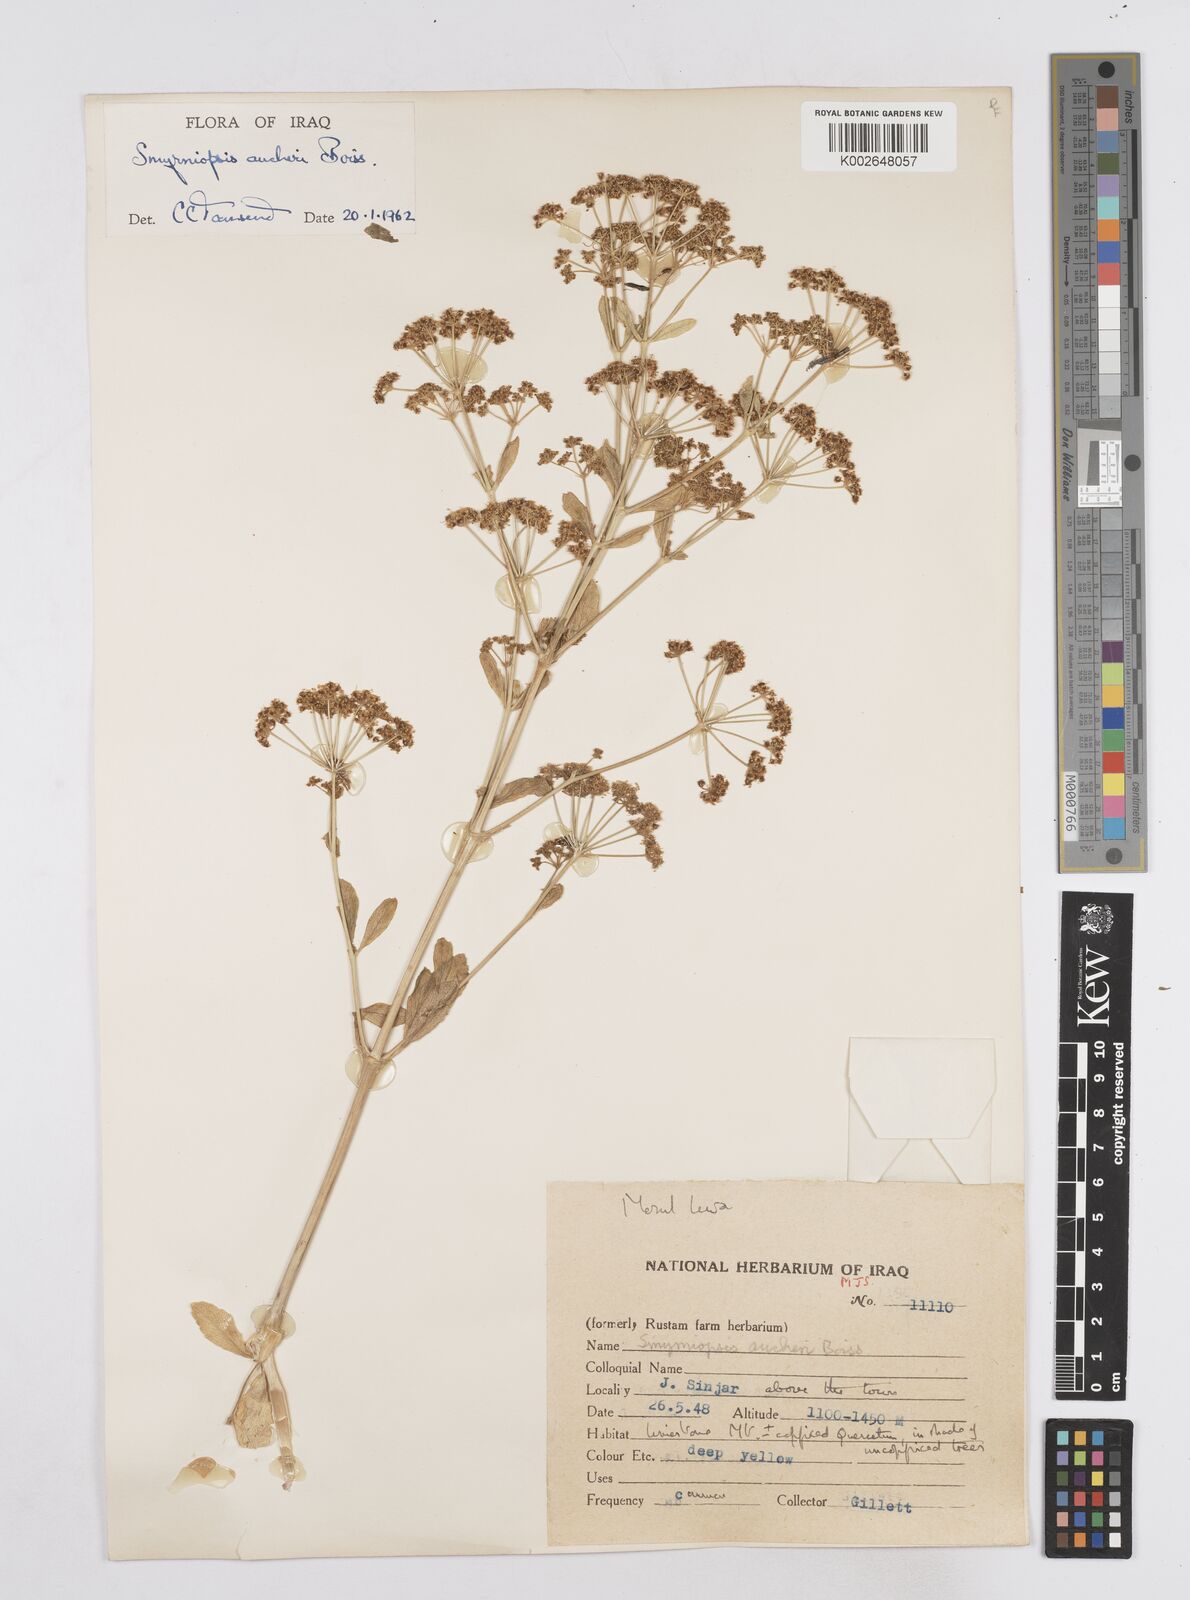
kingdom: Plantae
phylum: Tracheophyta
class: Magnoliopsida
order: Apiales
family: Apiaceae
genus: Smyrniopsis
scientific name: Smyrniopsis aucheri
